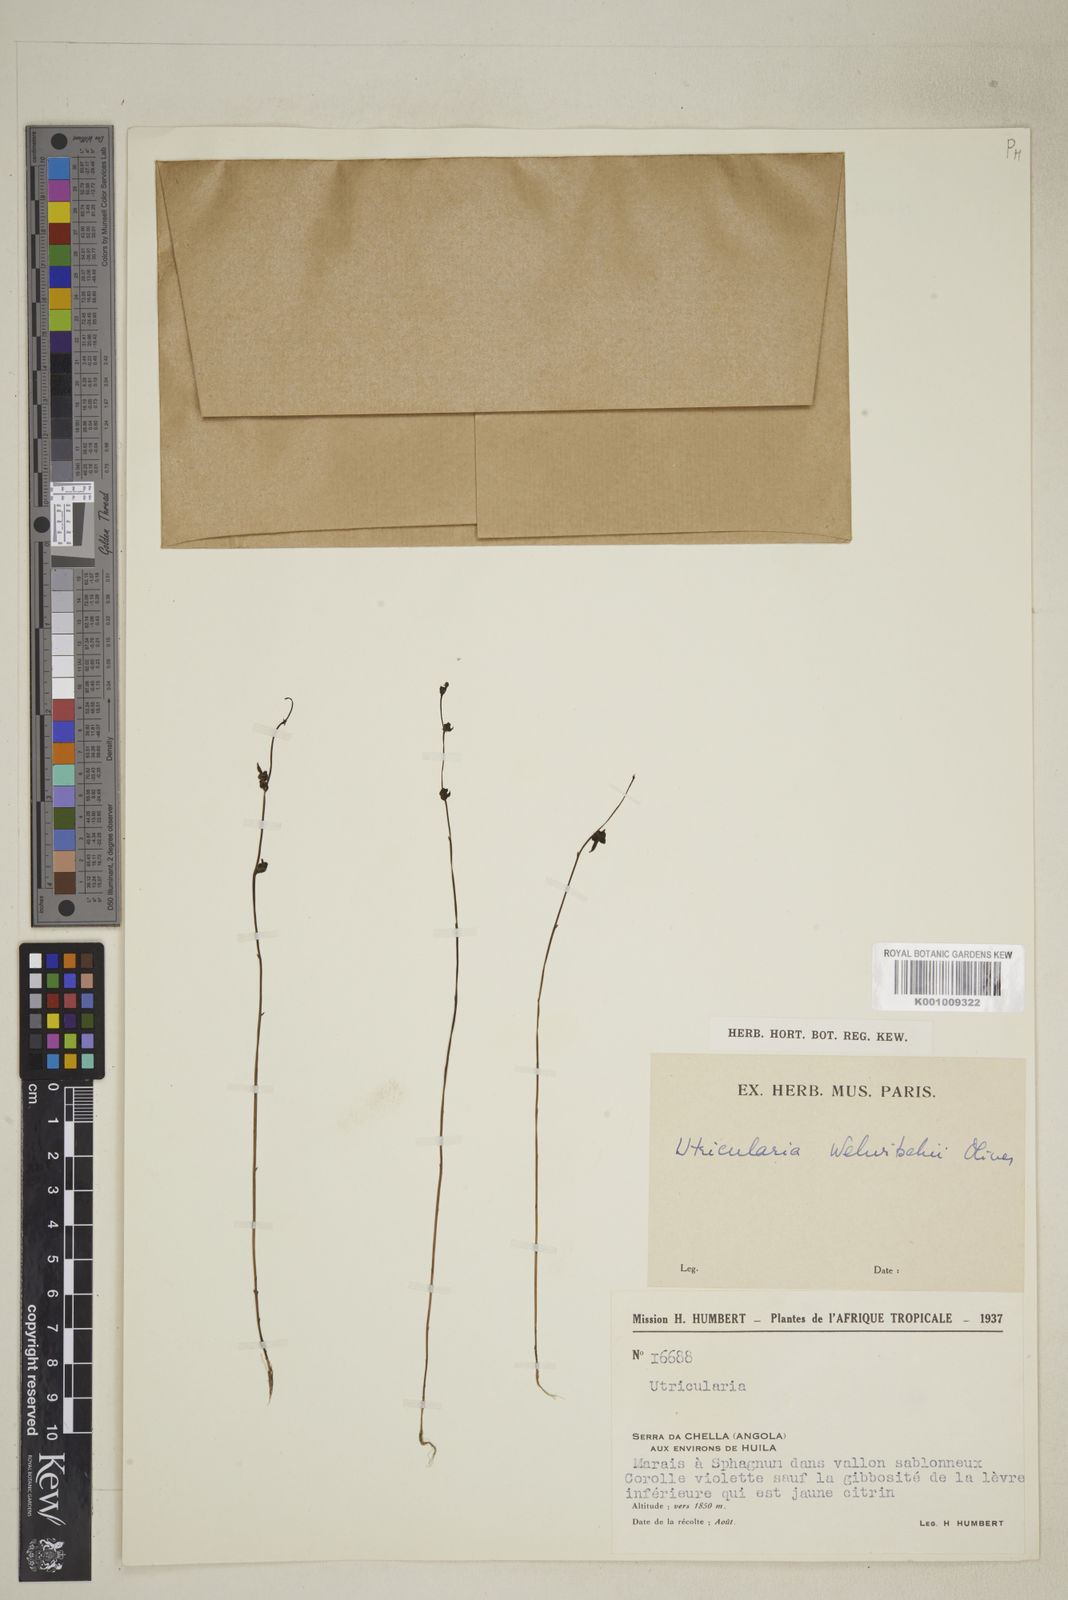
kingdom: Plantae
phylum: Tracheophyta
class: Magnoliopsida
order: Lamiales
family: Lentibulariaceae
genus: Utricularia
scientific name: Utricularia welwitschii
